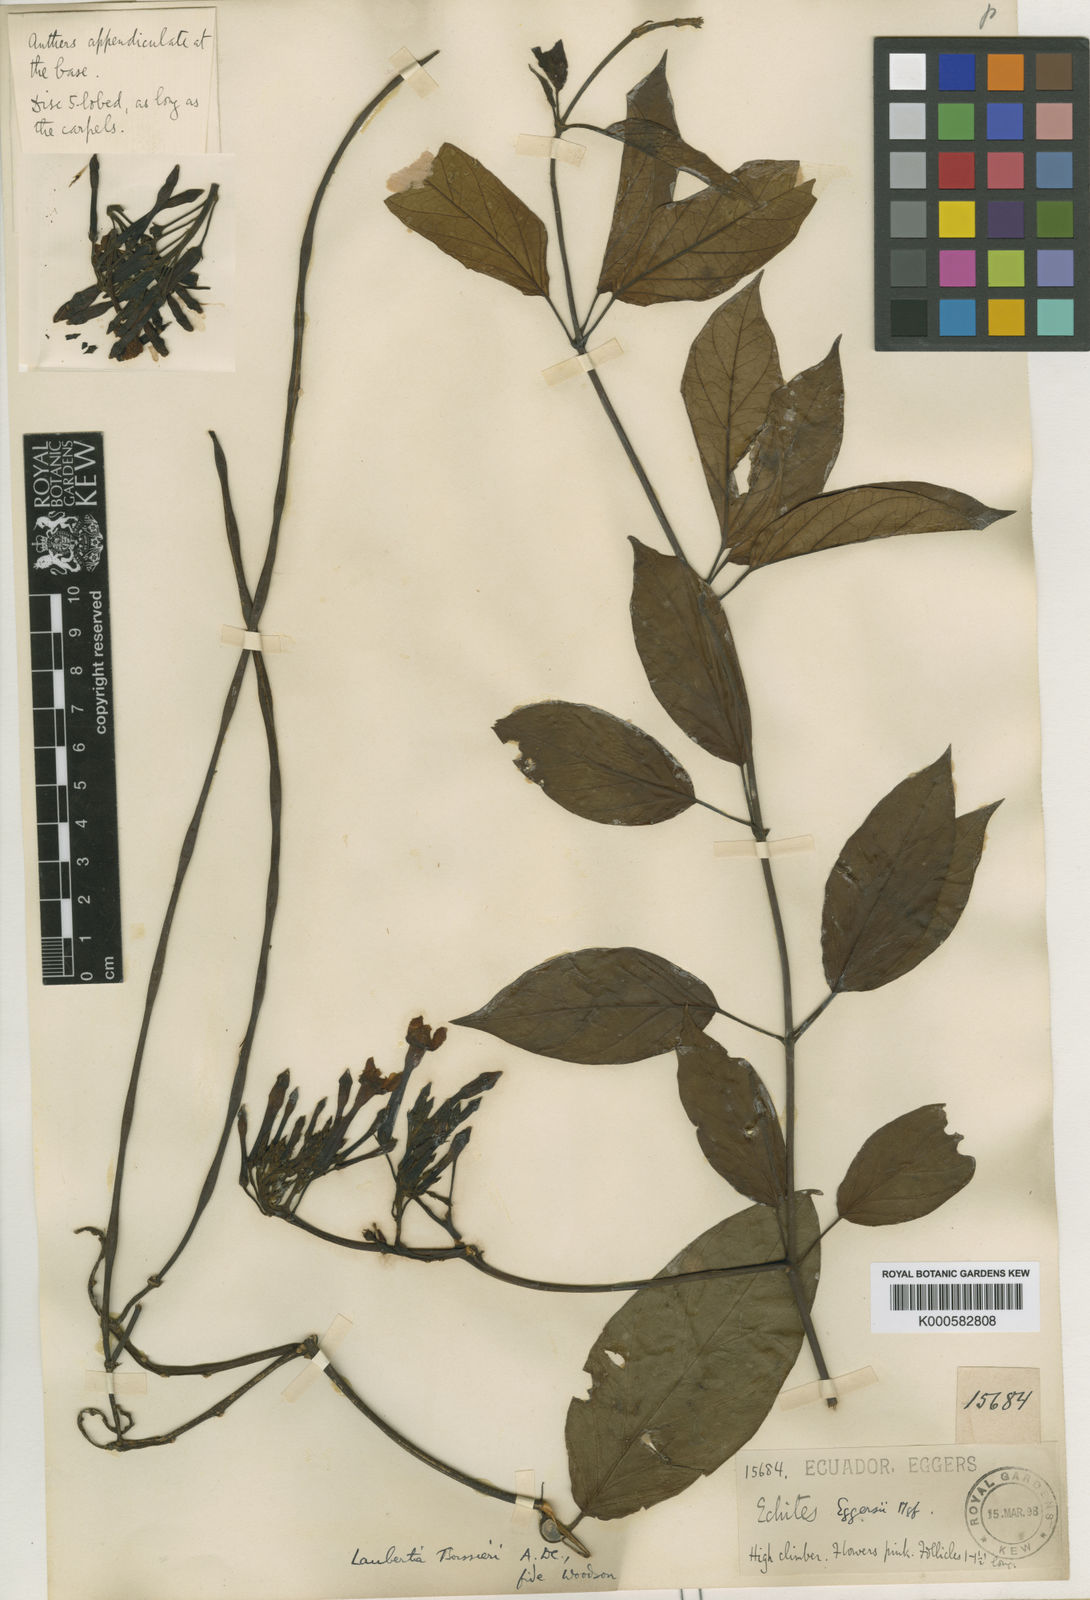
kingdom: Plantae
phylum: Tracheophyta
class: Magnoliopsida
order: Gentianales
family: Apocynaceae
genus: Laubertia
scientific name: Laubertia boissieri
